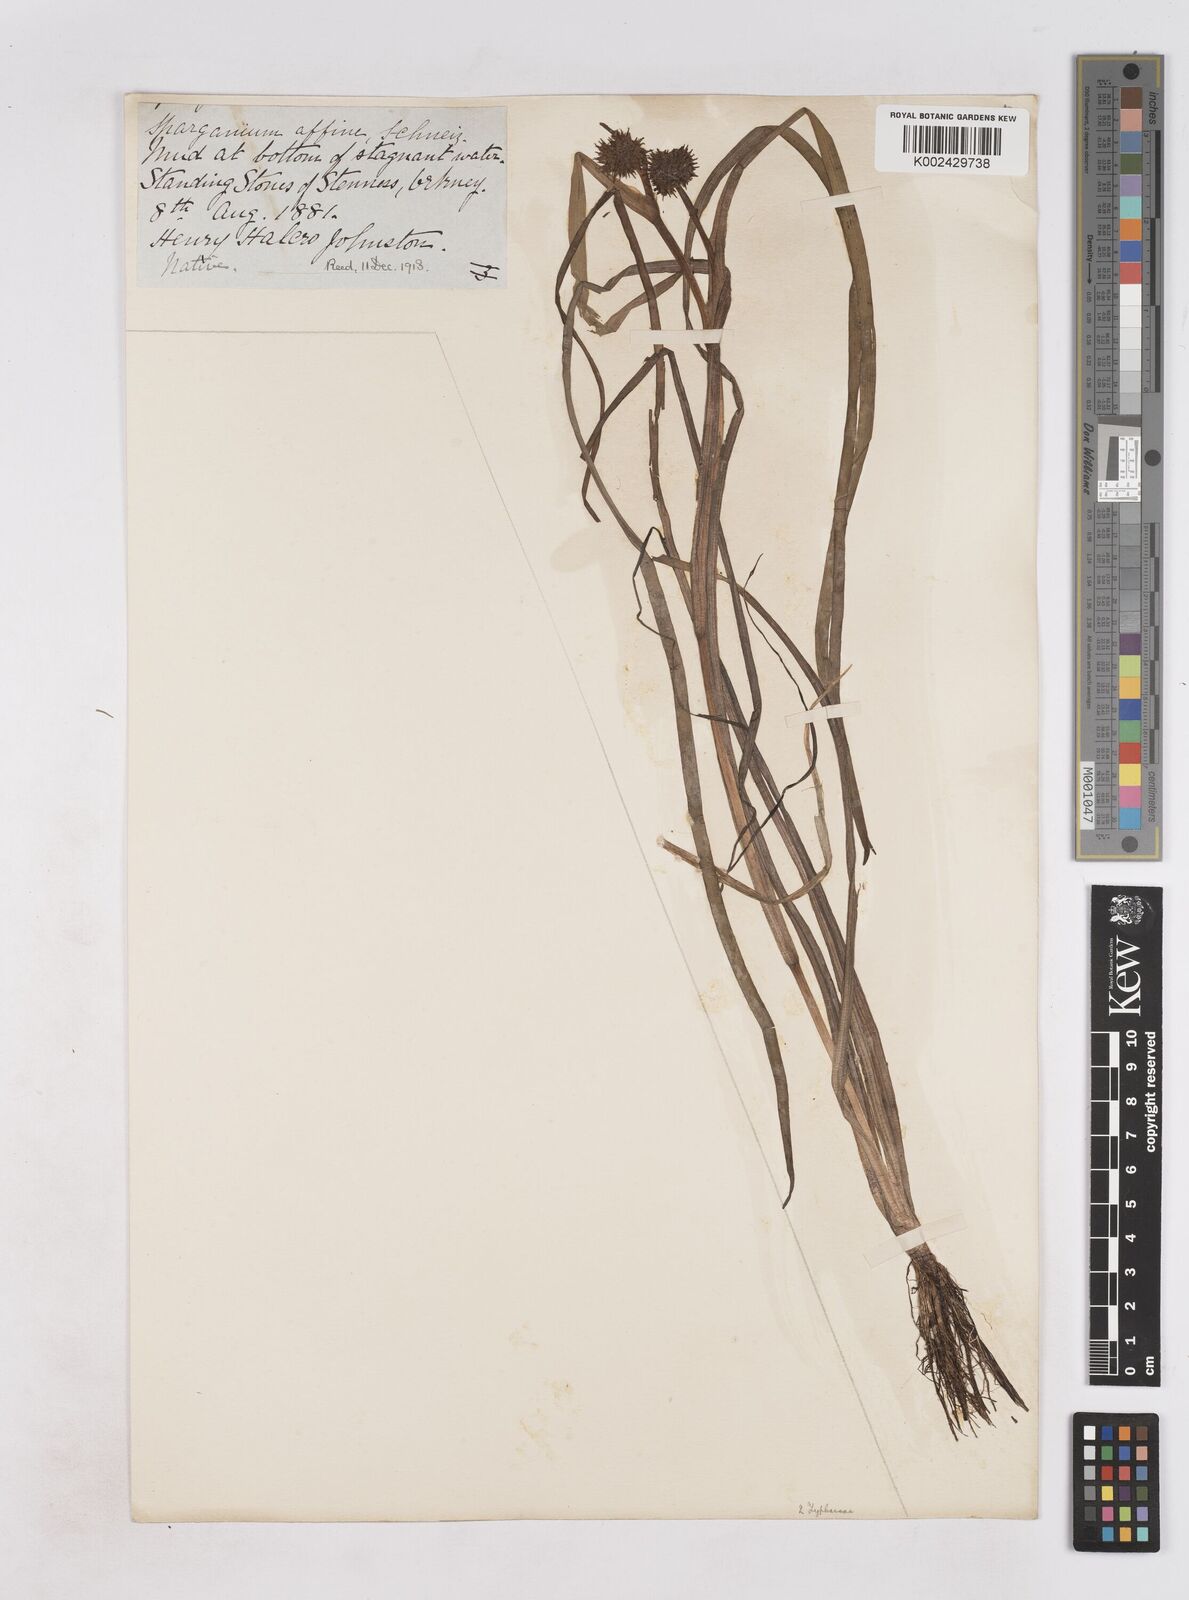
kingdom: Plantae
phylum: Tracheophyta
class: Liliopsida
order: Poales
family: Typhaceae
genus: Sparganium
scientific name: Sparganium angustifolium
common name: Floating bur-reed
